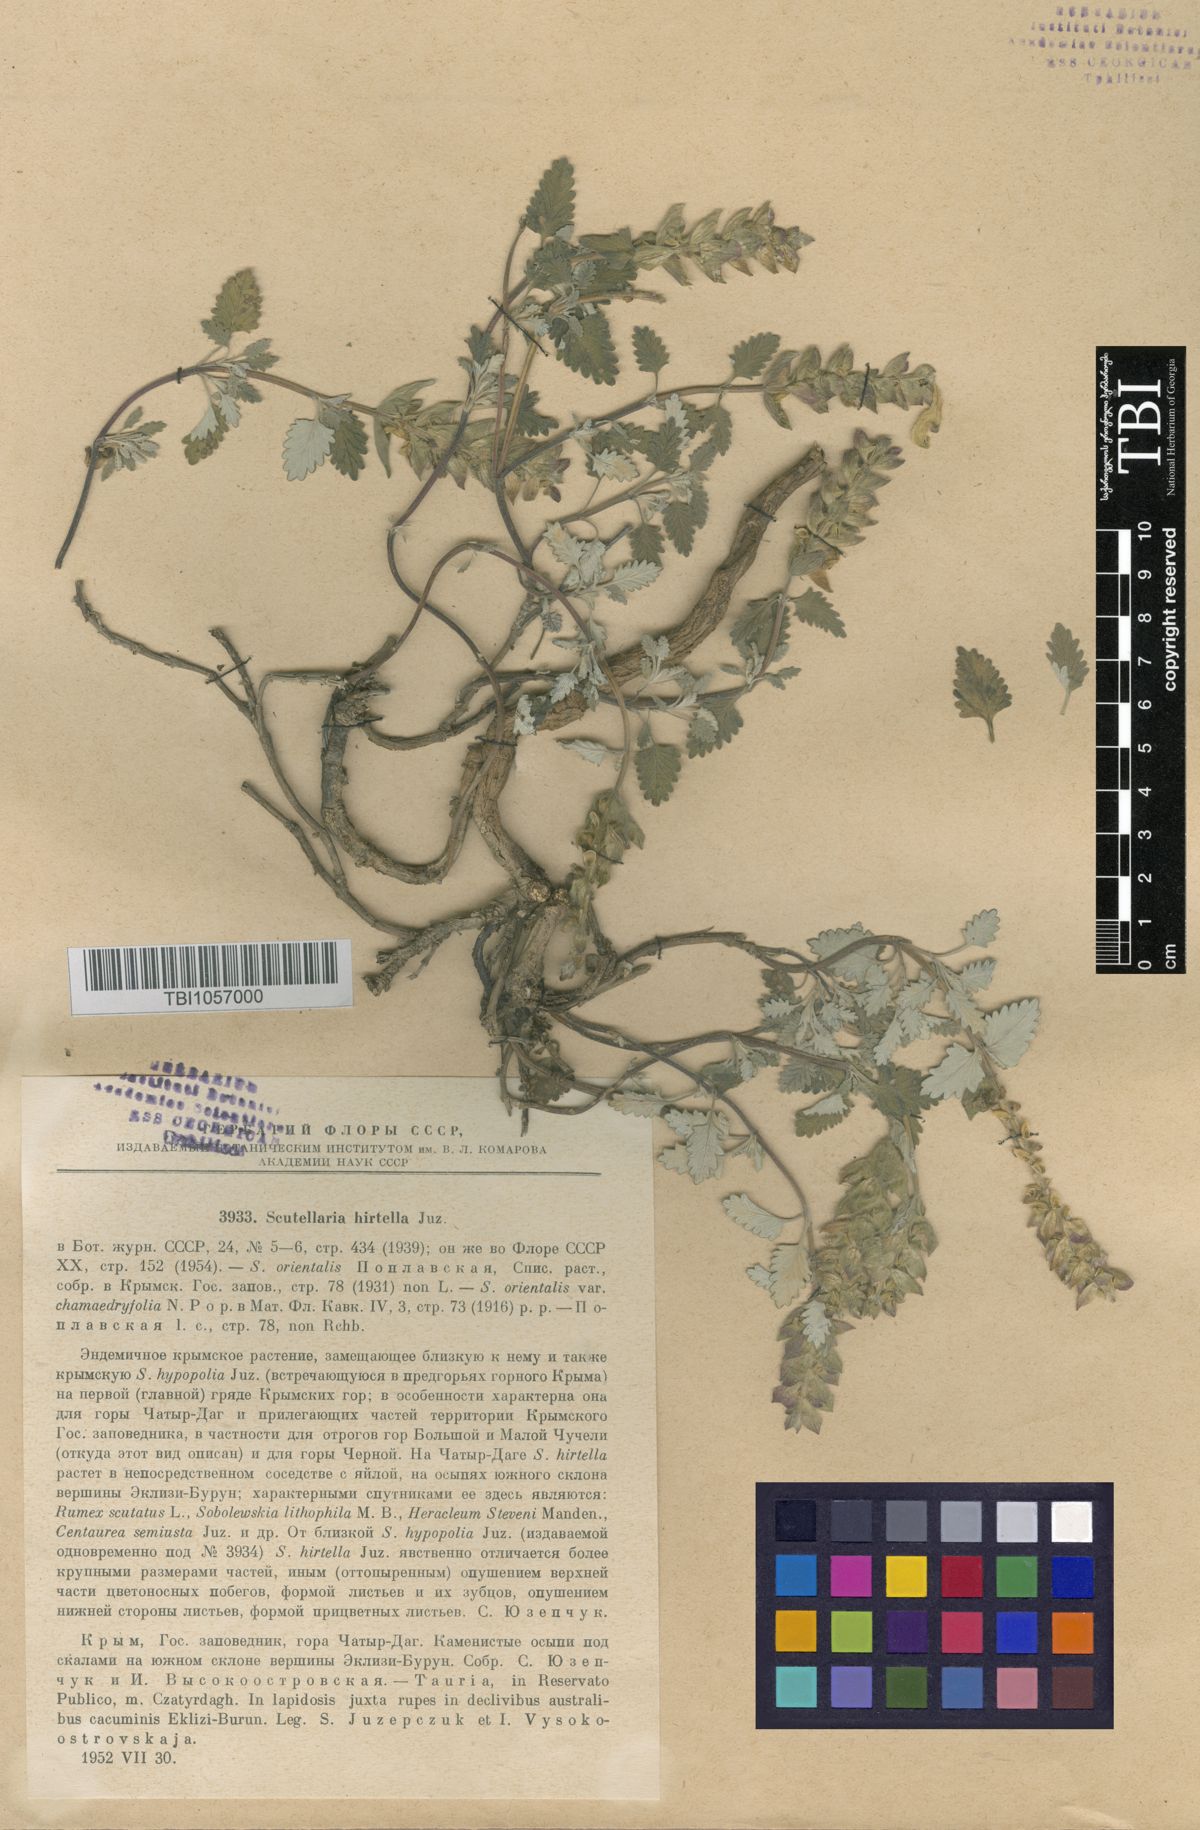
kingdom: Plantae
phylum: Tracheophyta
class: Magnoliopsida
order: Lamiales
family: Lamiaceae
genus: Scutellaria
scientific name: Scutellaria orientalis
